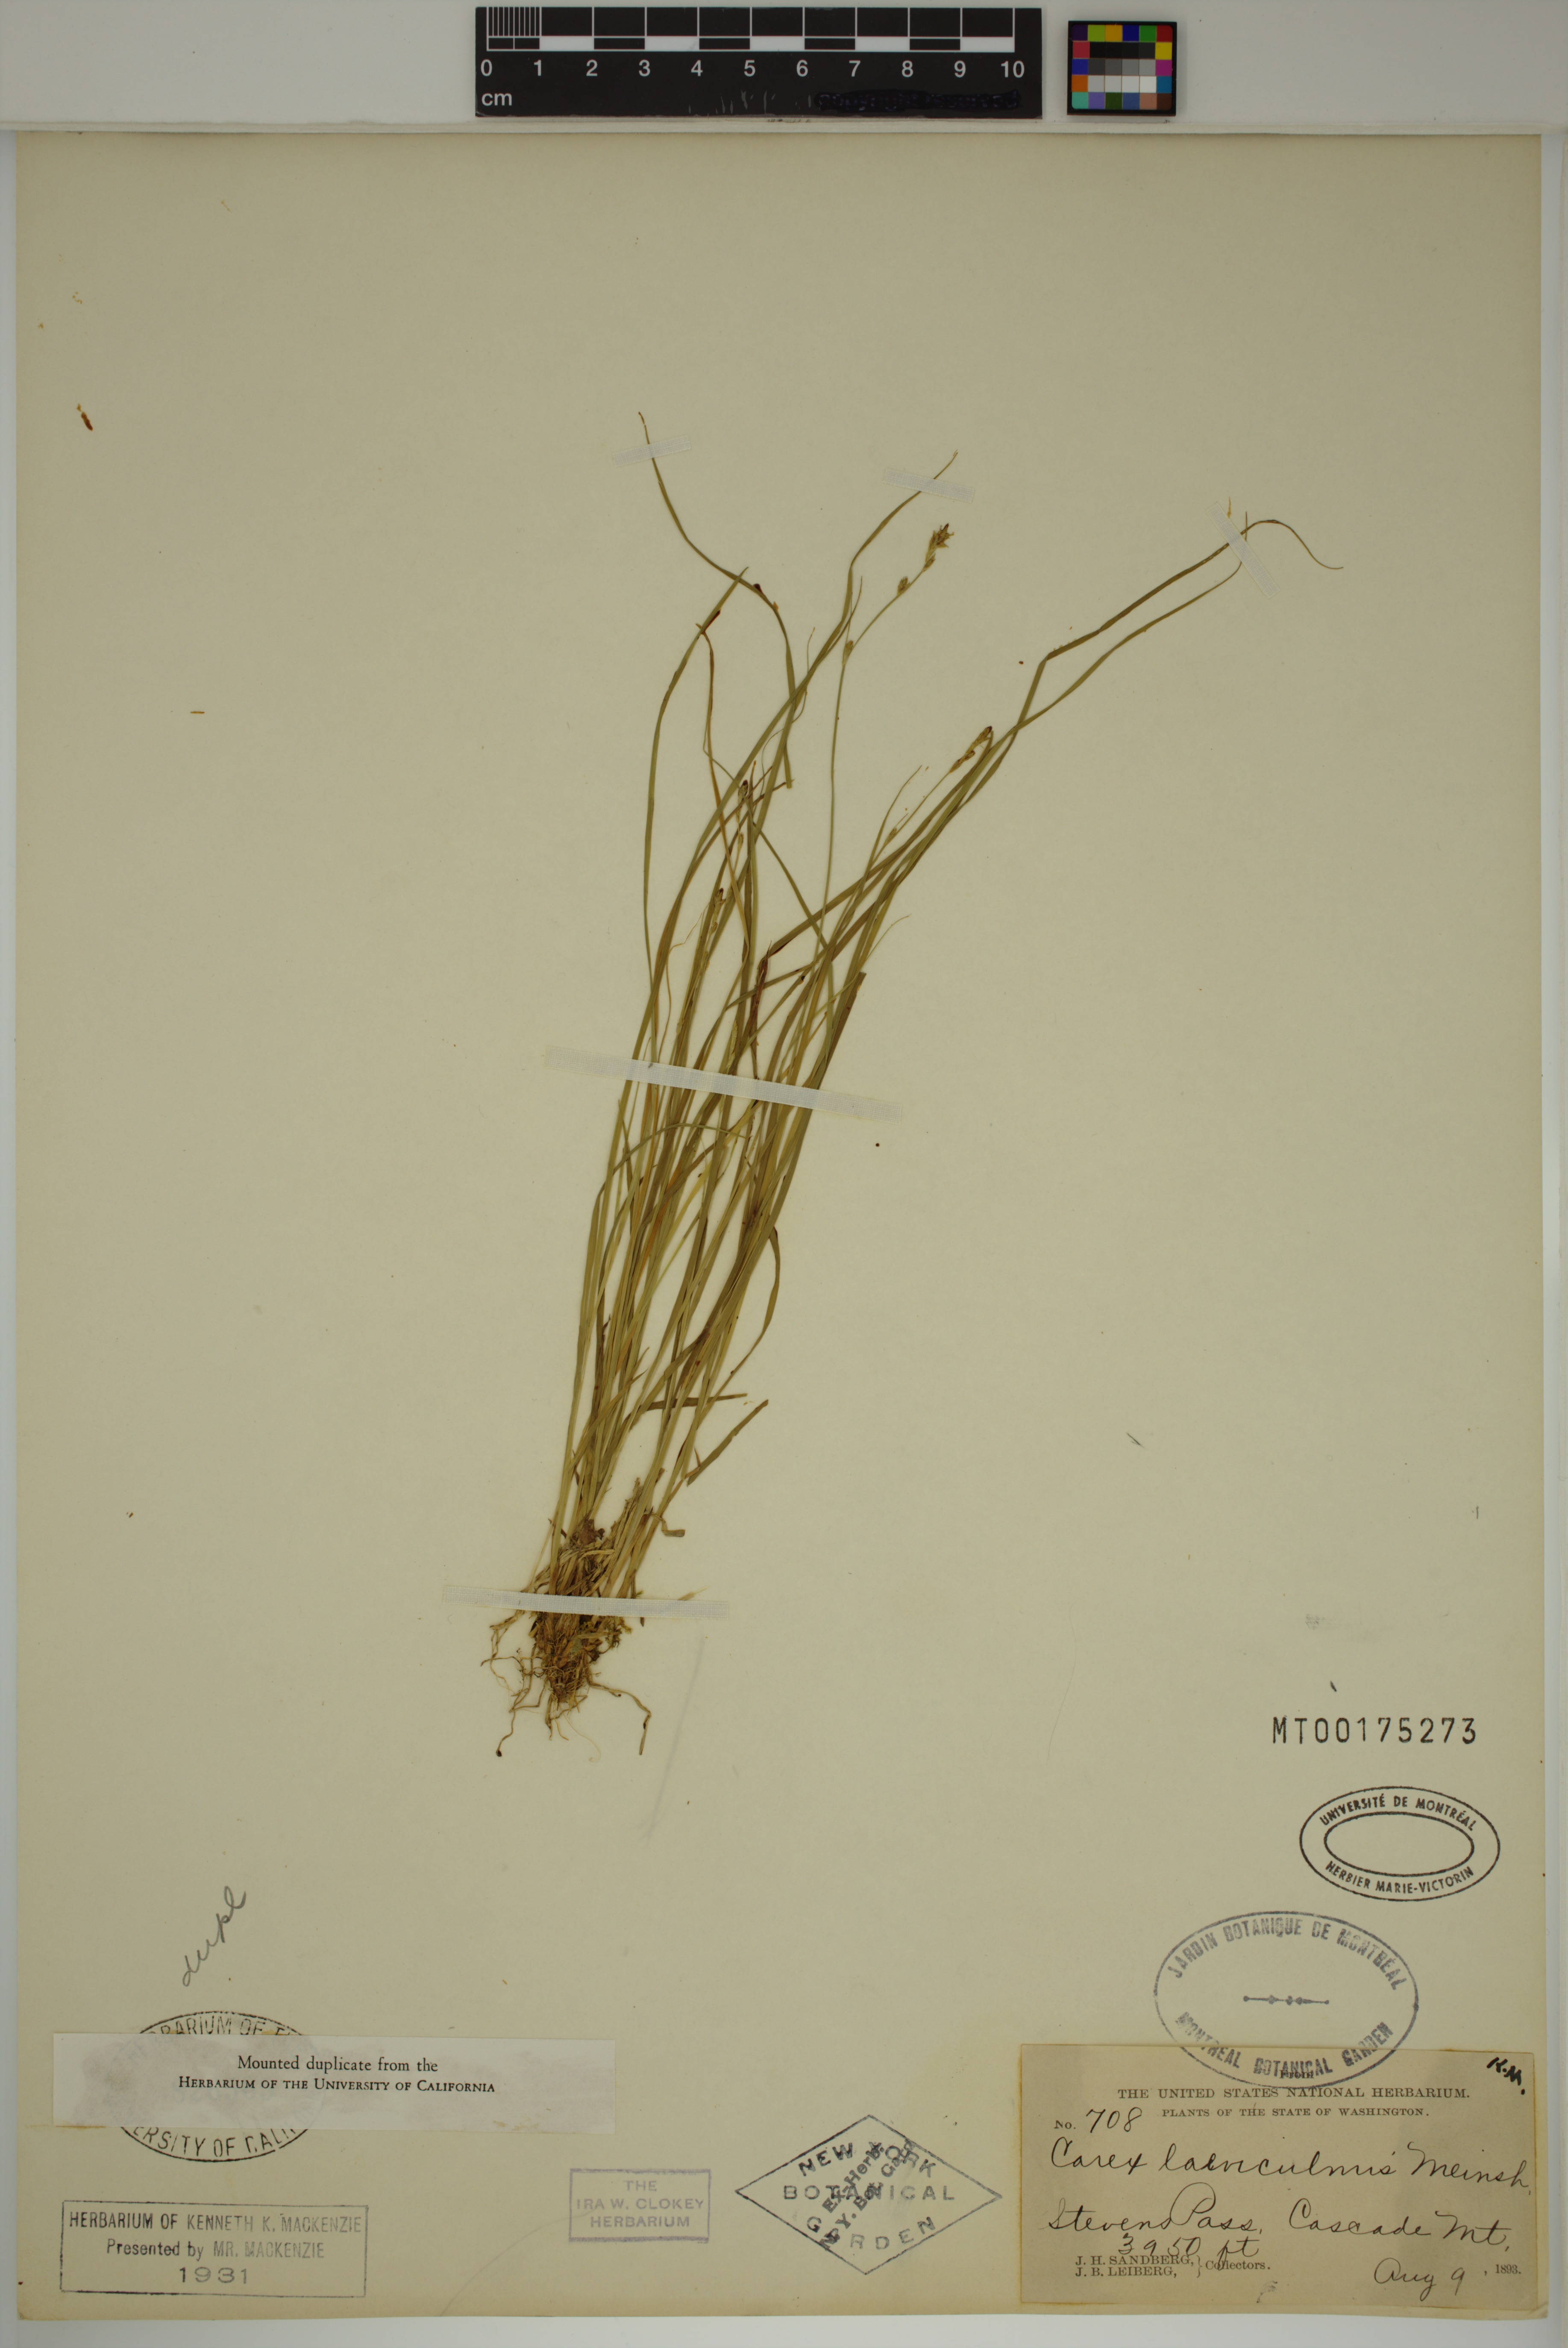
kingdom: Plantae
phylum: Tracheophyta
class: Liliopsida
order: Poales
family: Cyperaceae
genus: Carex
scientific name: Carex laeviculmis
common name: Smooth sedge
